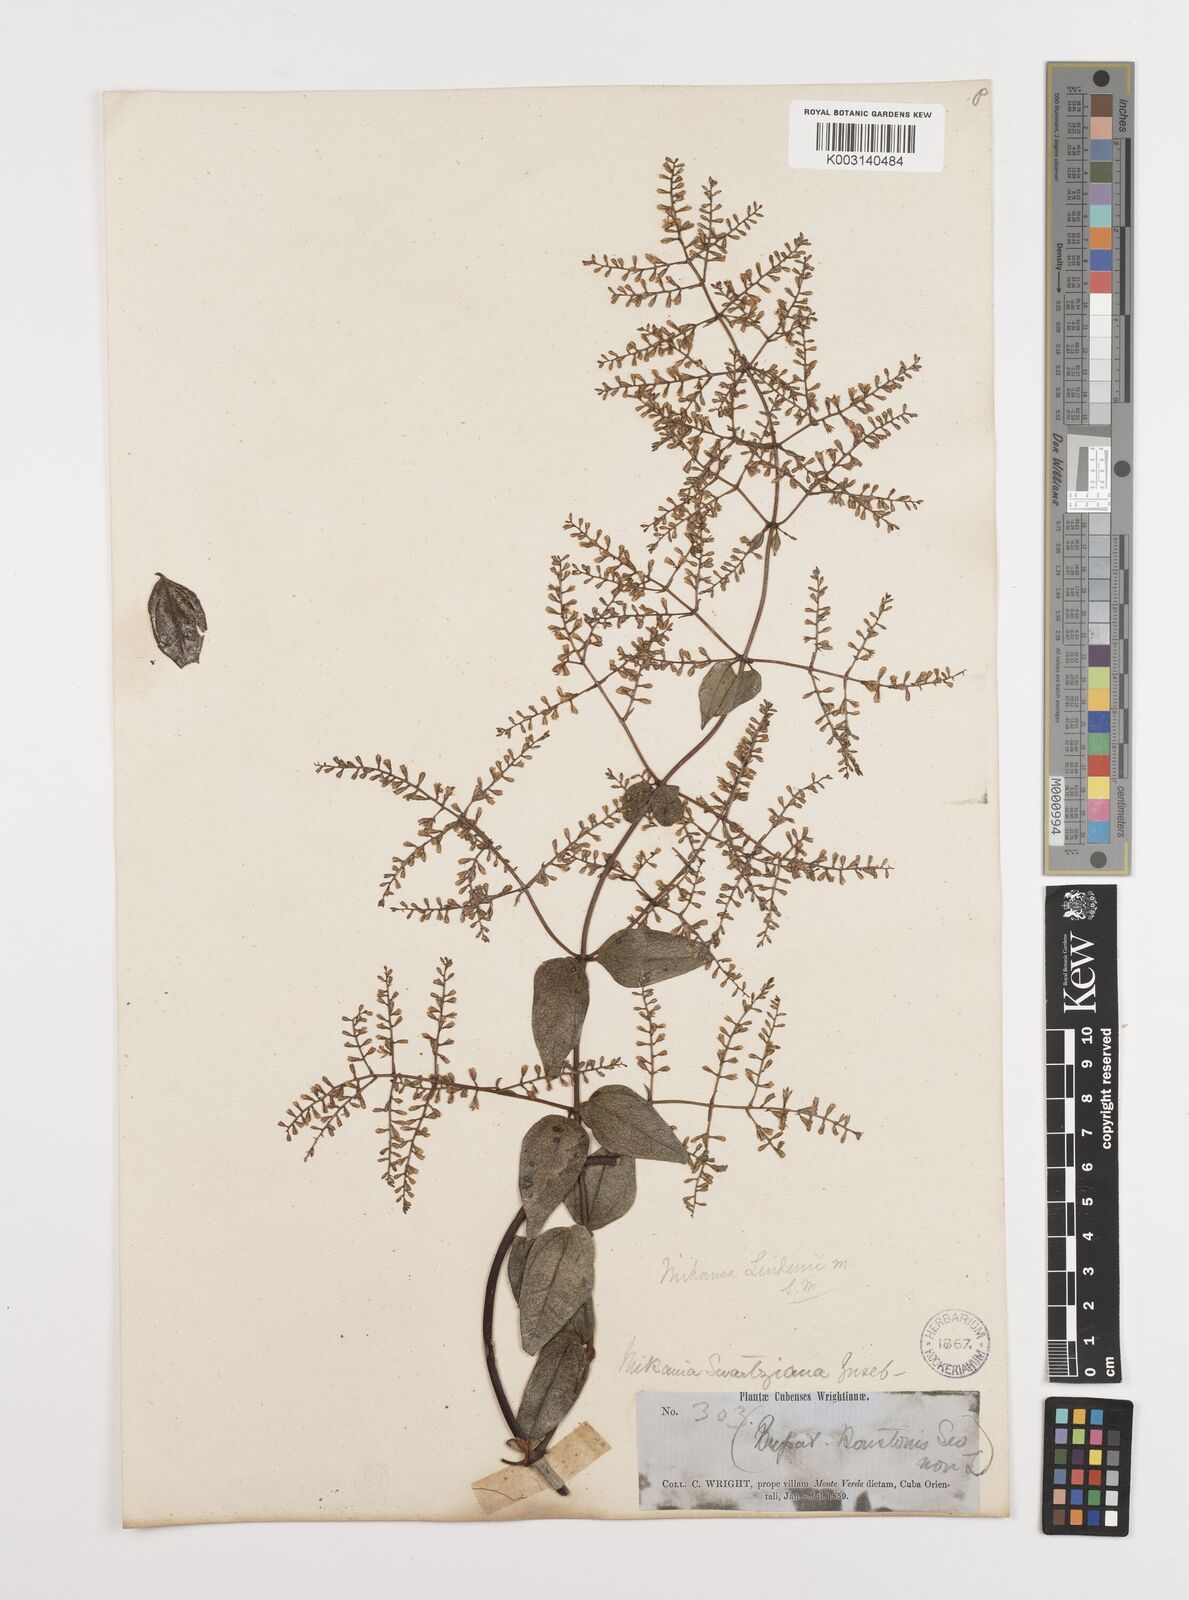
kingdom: Plantae
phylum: Tracheophyta
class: Magnoliopsida
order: Asterales
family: Asteraceae
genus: Mikania
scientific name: Mikania hioramii
